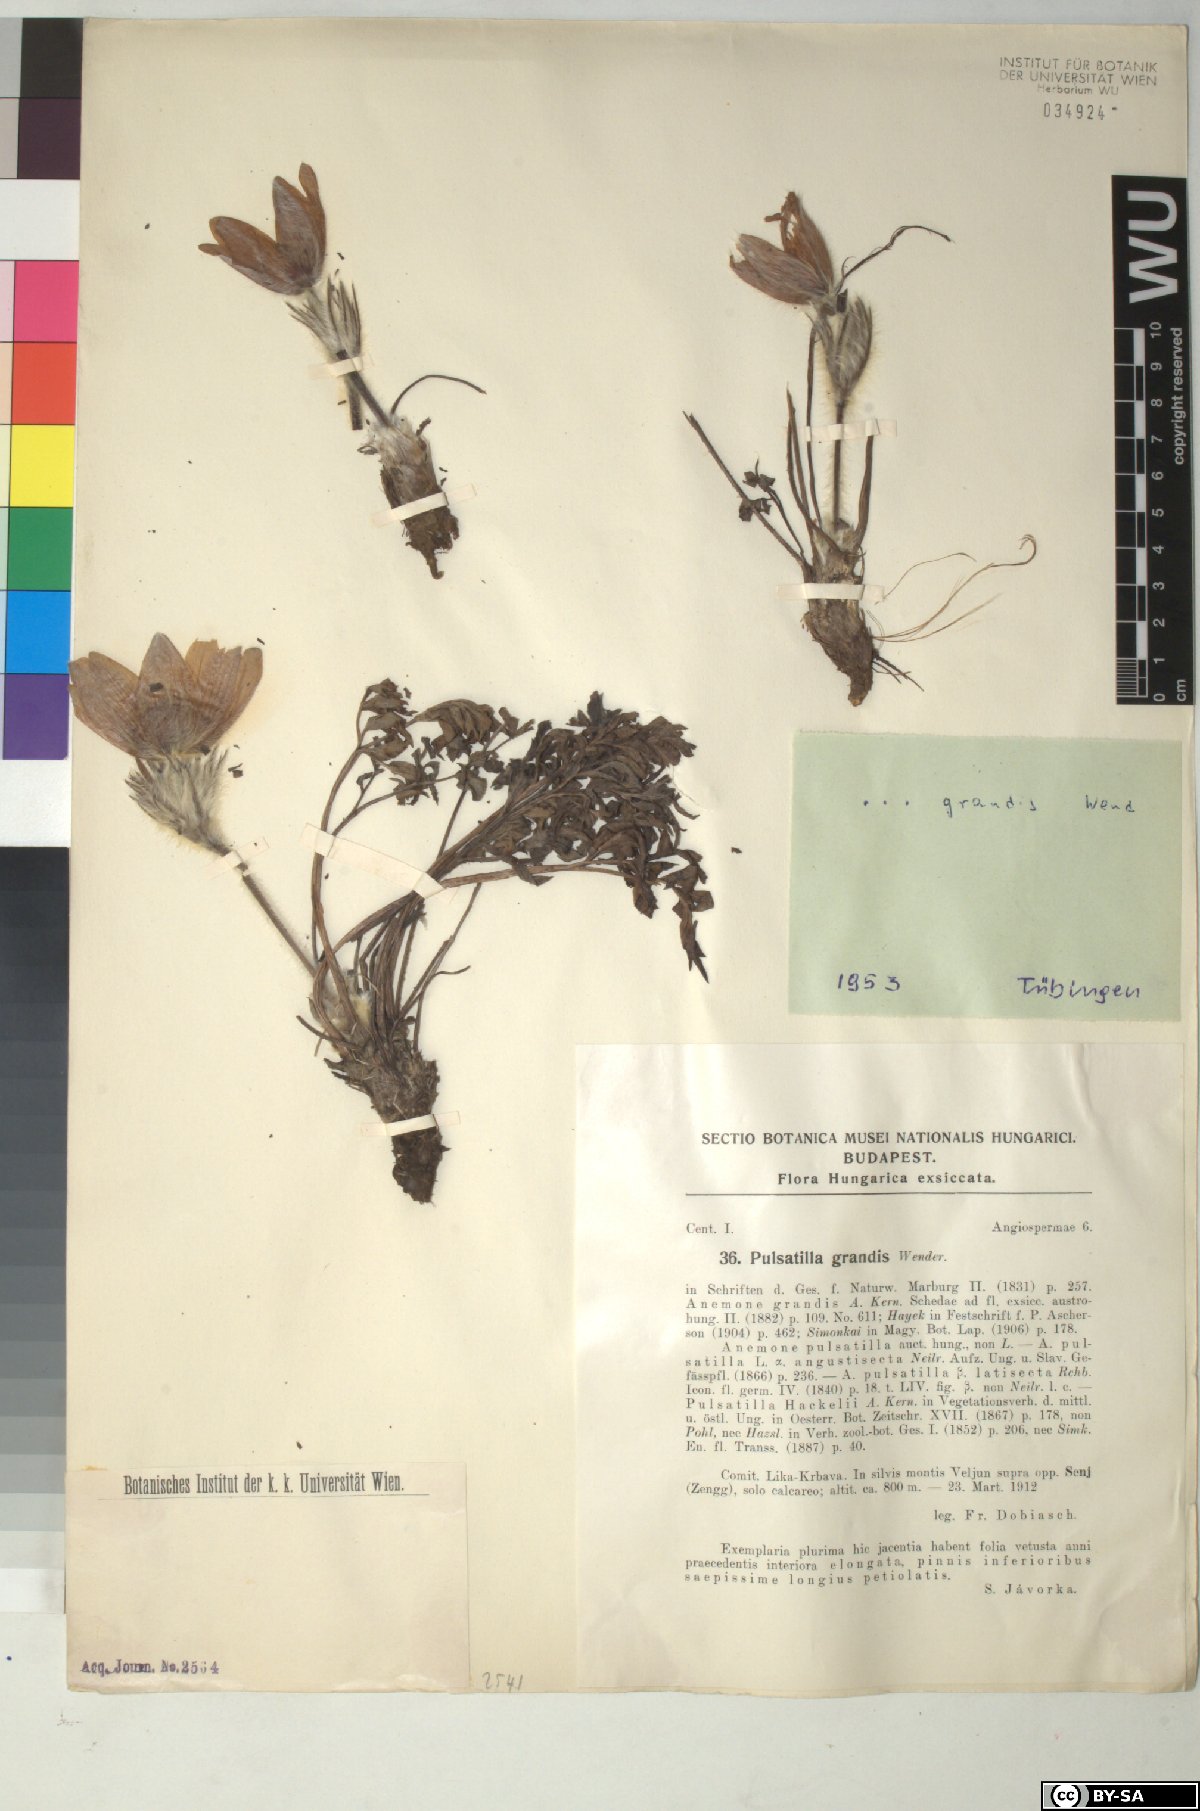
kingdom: Plantae
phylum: Tracheophyta
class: Magnoliopsida
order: Ranunculales
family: Ranunculaceae
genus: Pulsatilla
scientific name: Pulsatilla grandis
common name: Greater pasque flower
